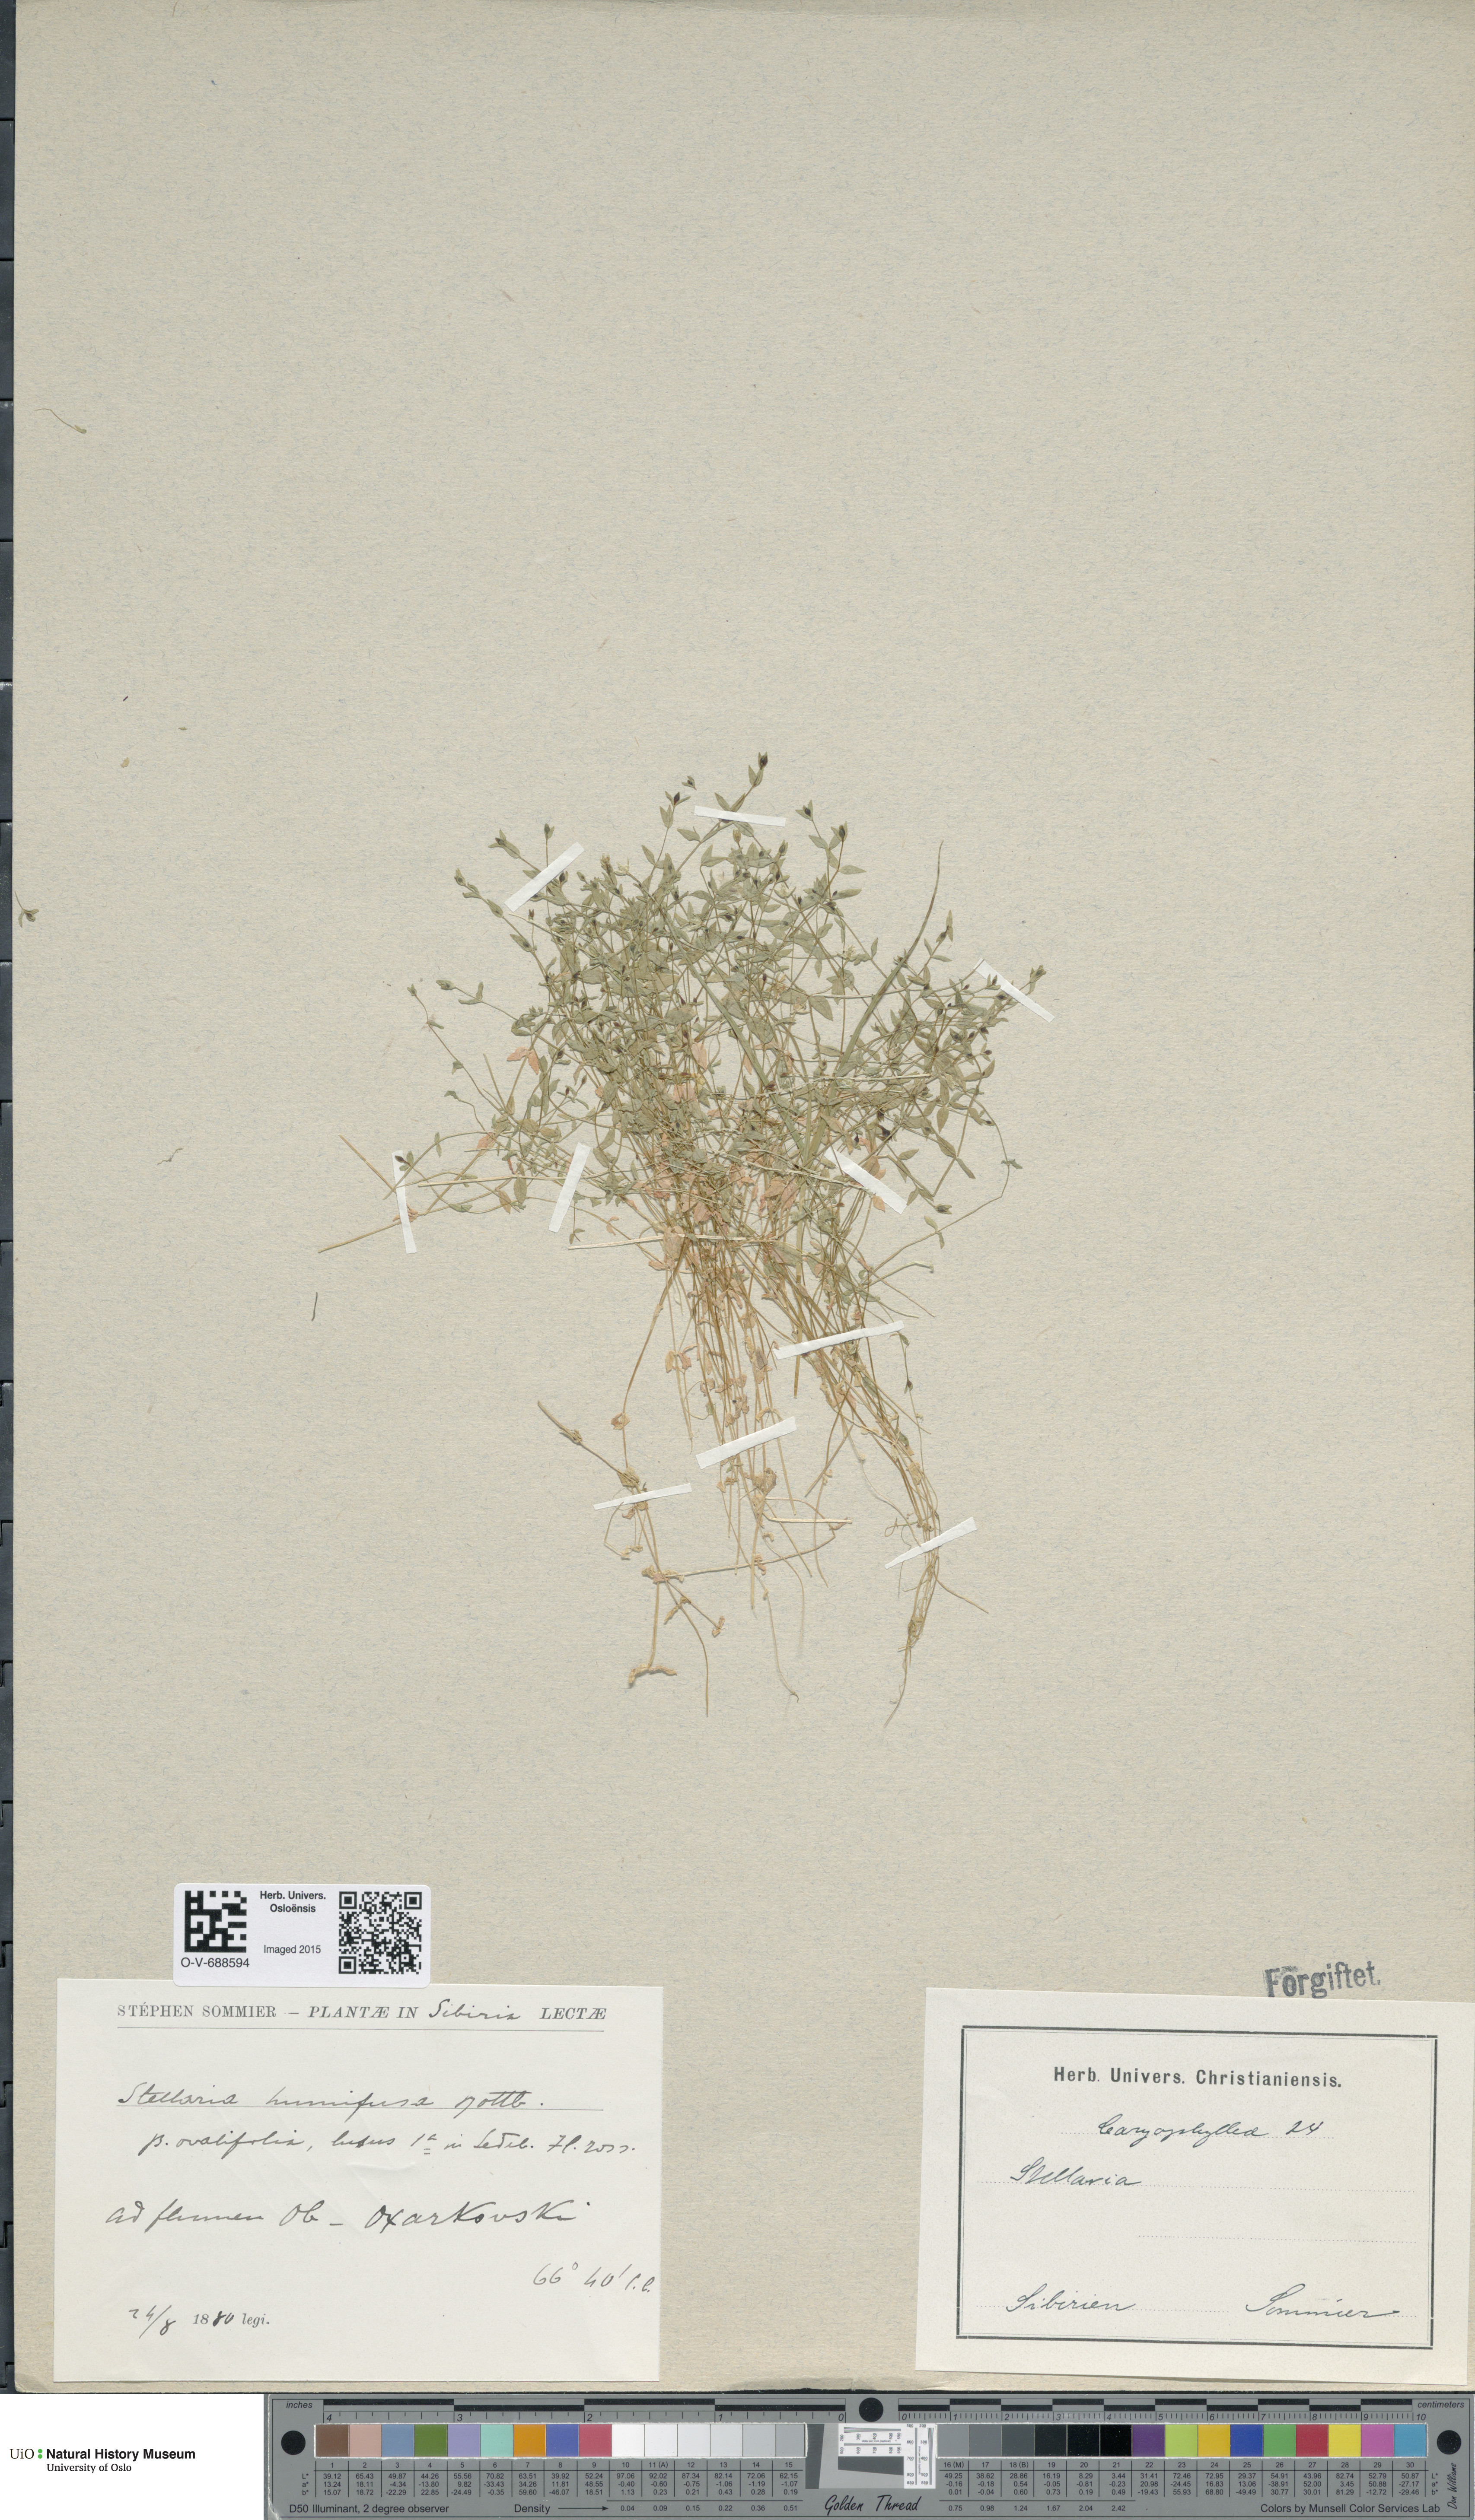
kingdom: Plantae
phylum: Tracheophyta
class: Magnoliopsida
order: Caryophyllales
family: Caryophyllaceae
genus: Stellaria
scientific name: Stellaria humifusa
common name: Creeping starwort
